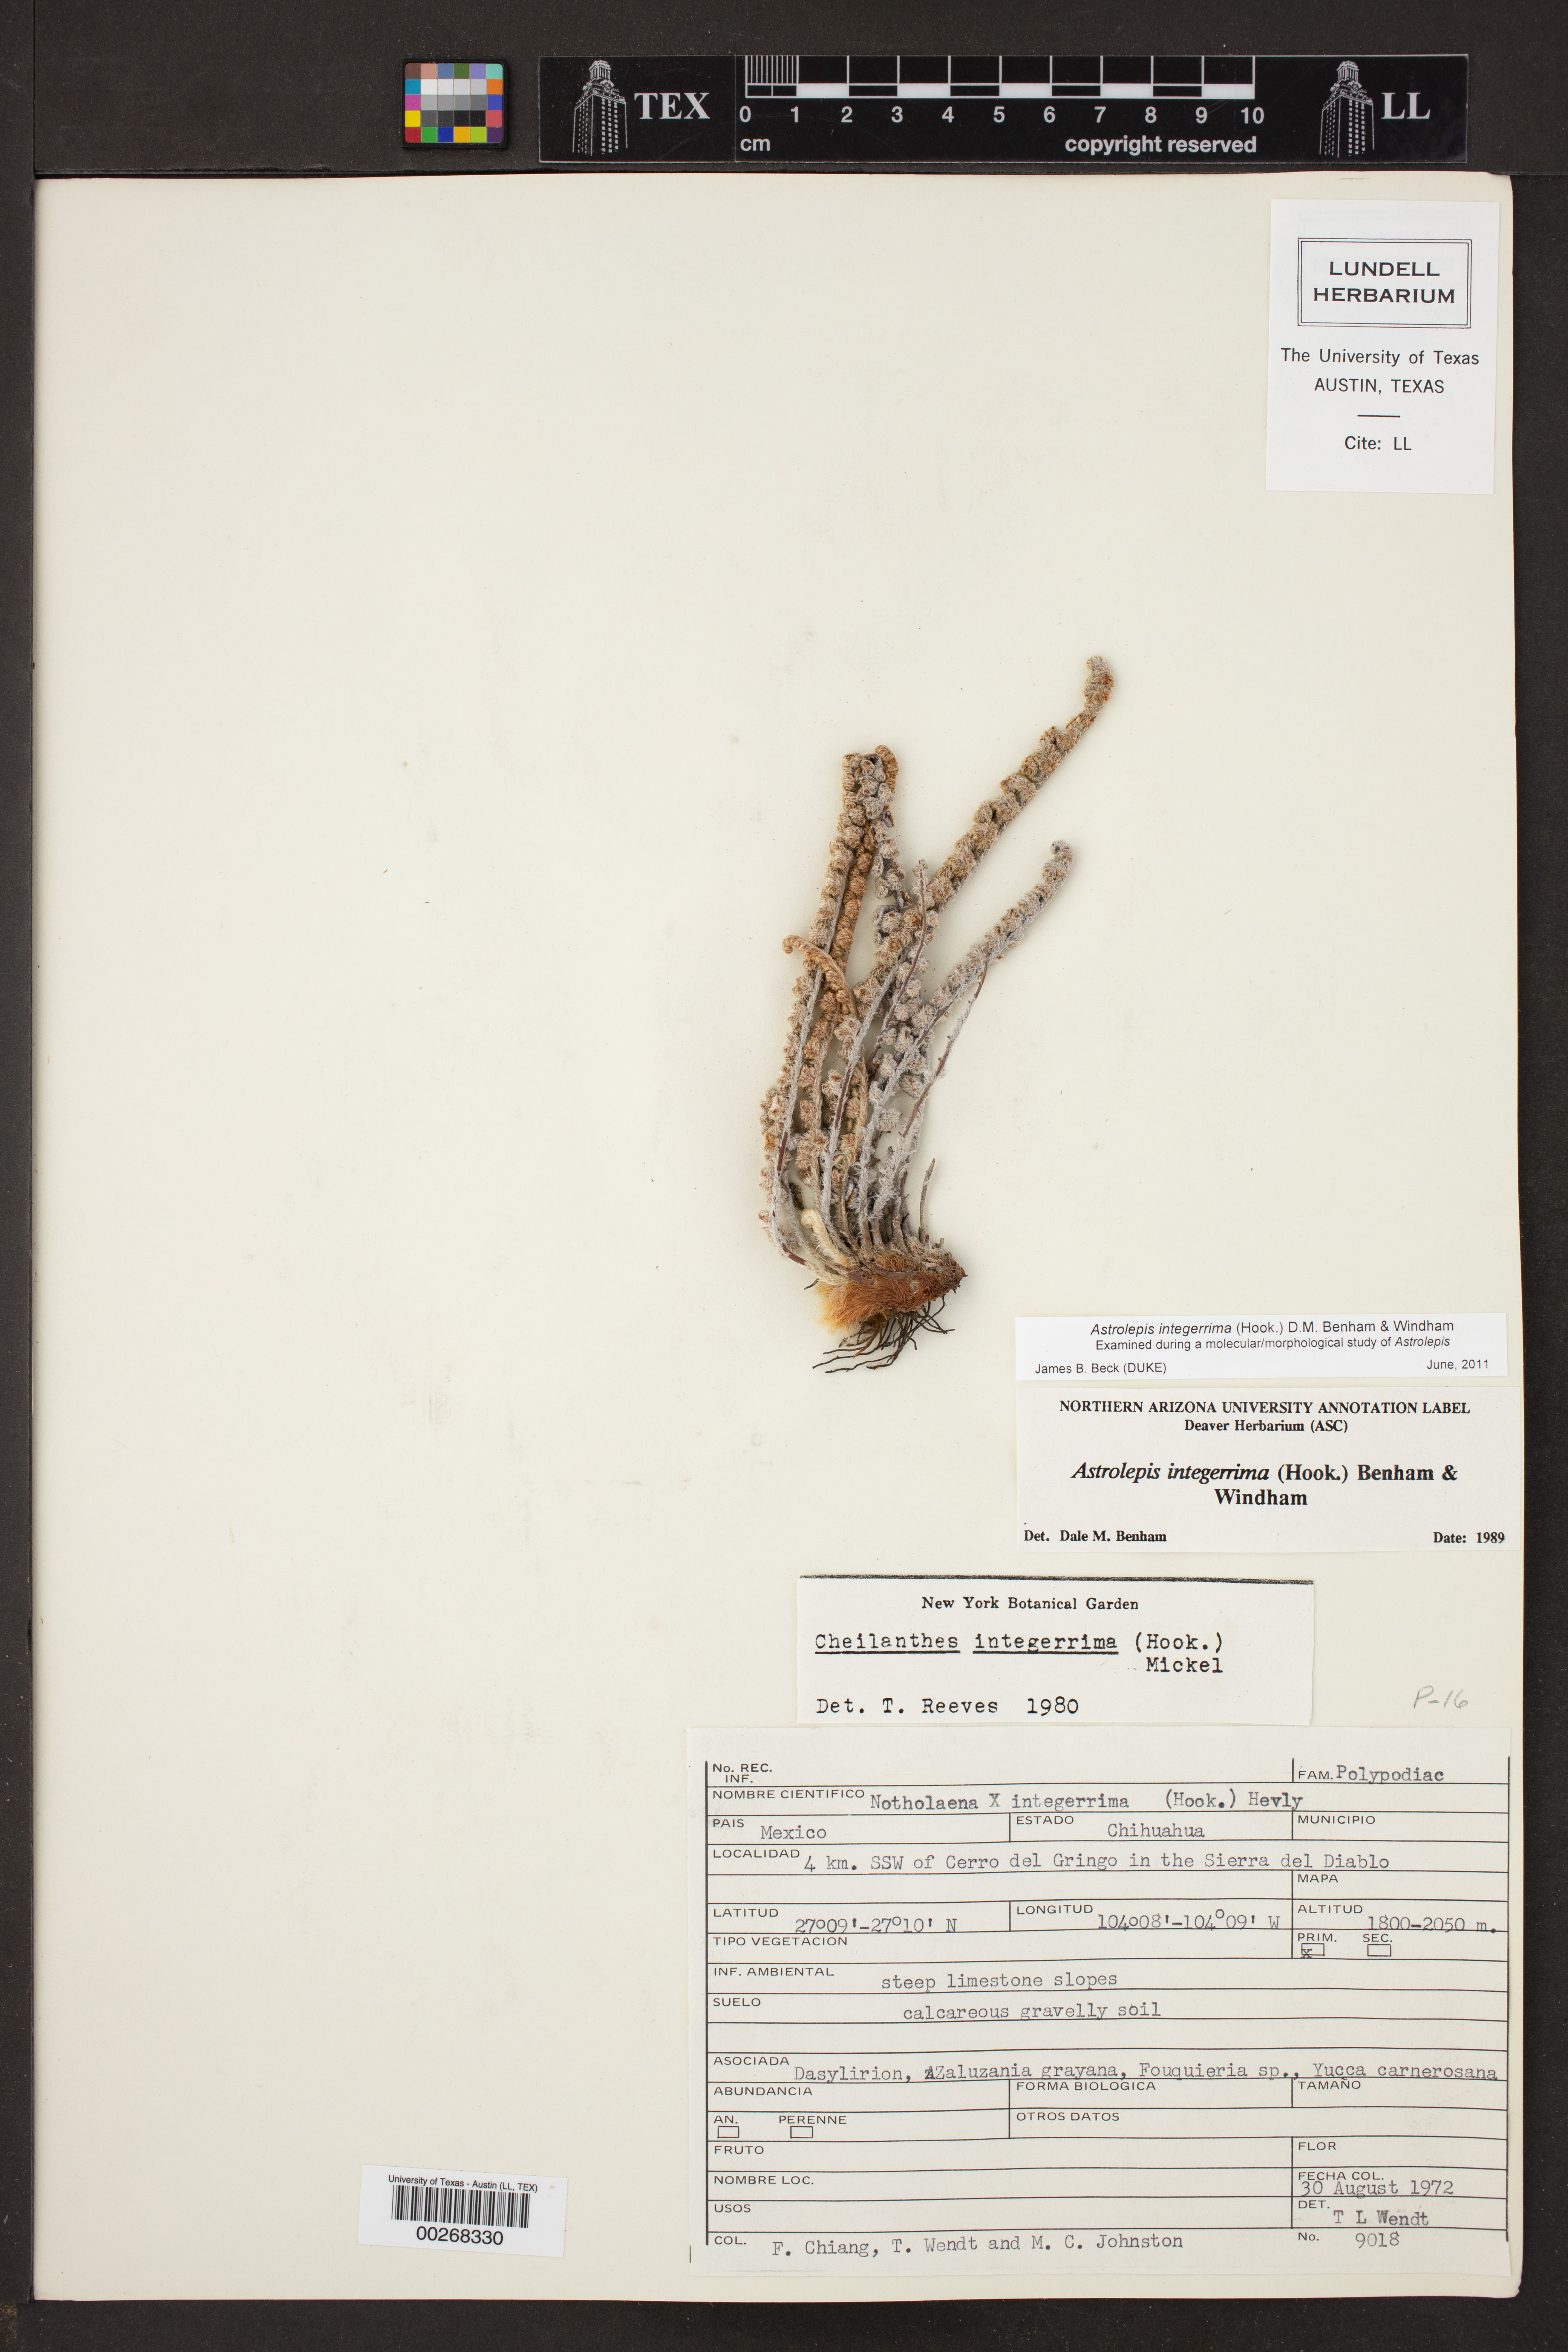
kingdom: Plantae
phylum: Tracheophyta
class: Polypodiopsida
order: Polypodiales
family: Pteridaceae
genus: Astrolepis
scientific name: Astrolepis integerrima
